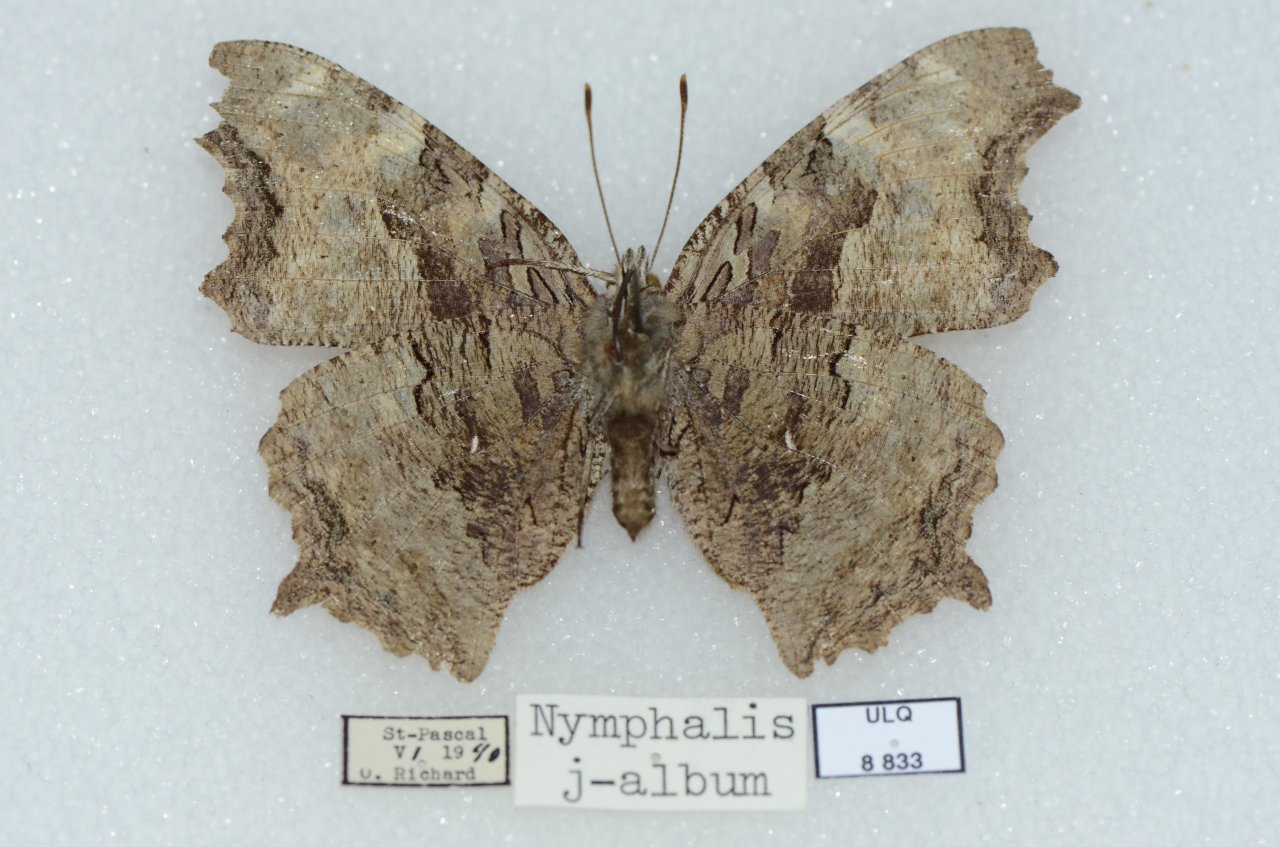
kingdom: Animalia
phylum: Arthropoda
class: Insecta
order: Lepidoptera
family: Nymphalidae
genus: Polygonia
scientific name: Polygonia vaualbum
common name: Compton Tortoiseshell
